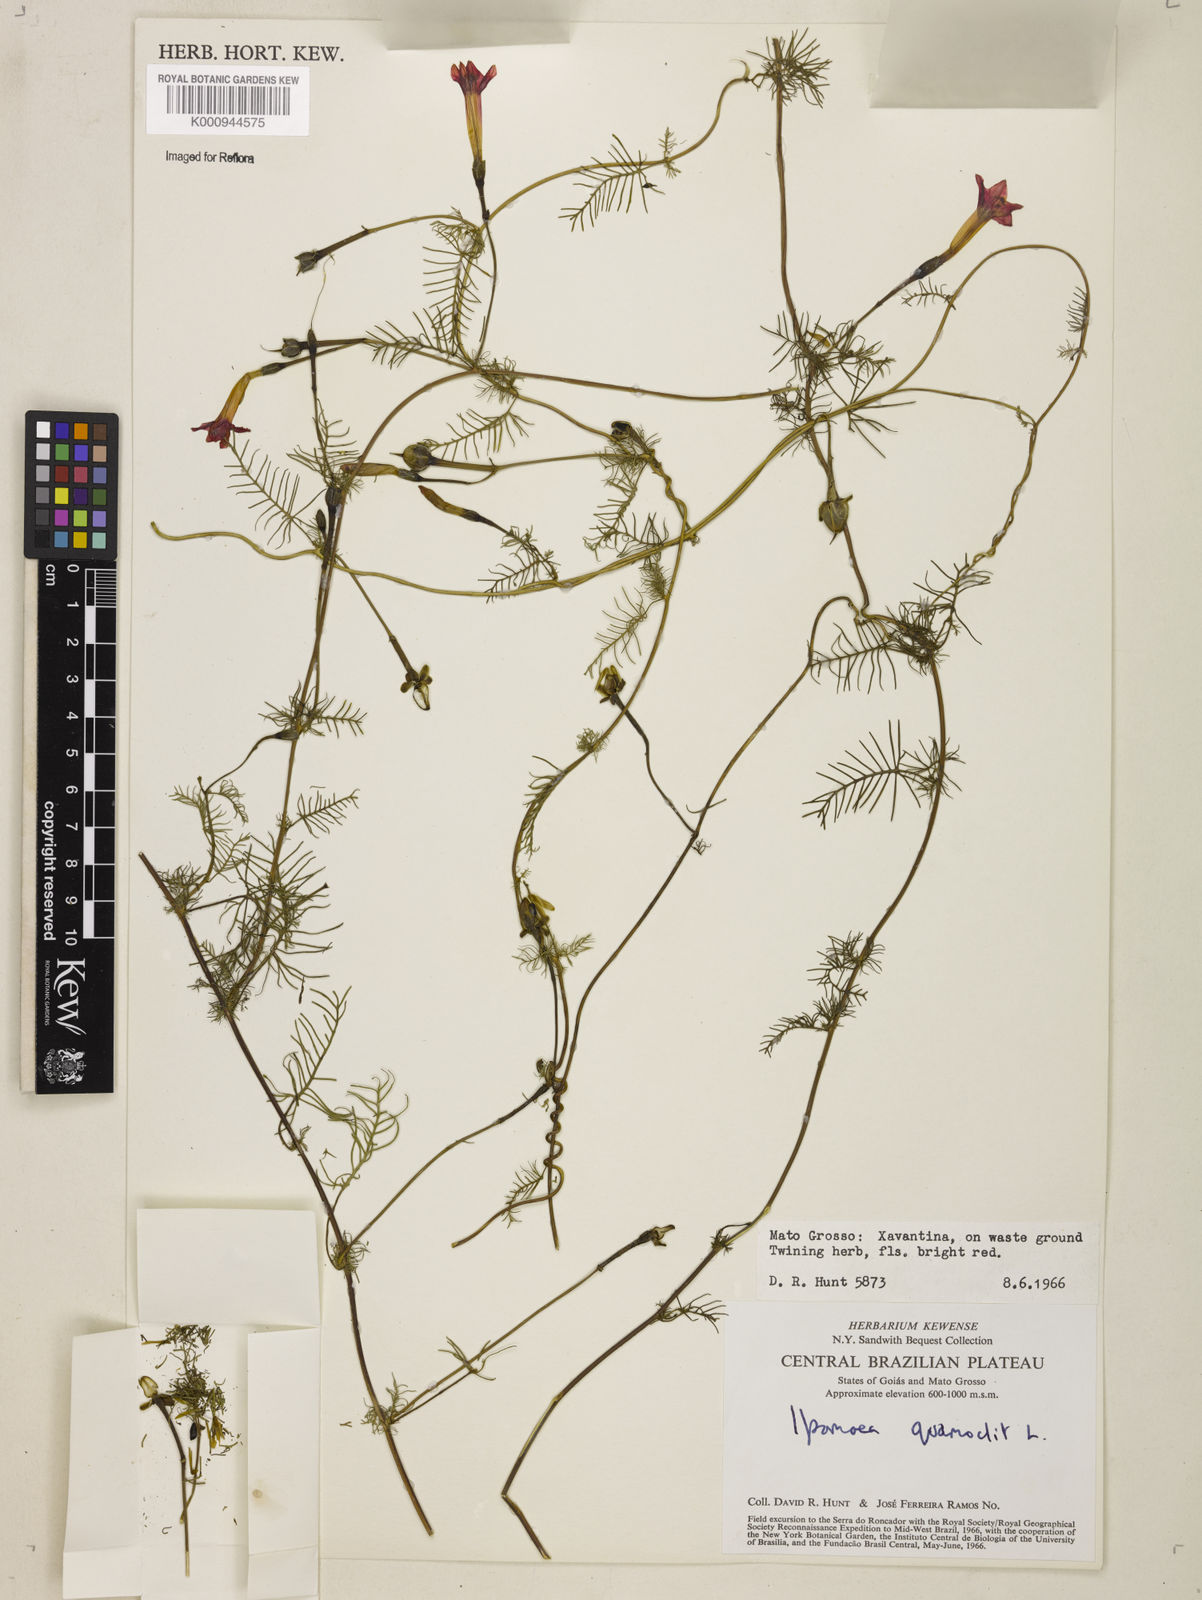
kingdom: Plantae
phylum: Tracheophyta
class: Magnoliopsida
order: Solanales
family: Convolvulaceae
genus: Ipomoea
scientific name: Ipomoea quamoclit
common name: Cypress vine
